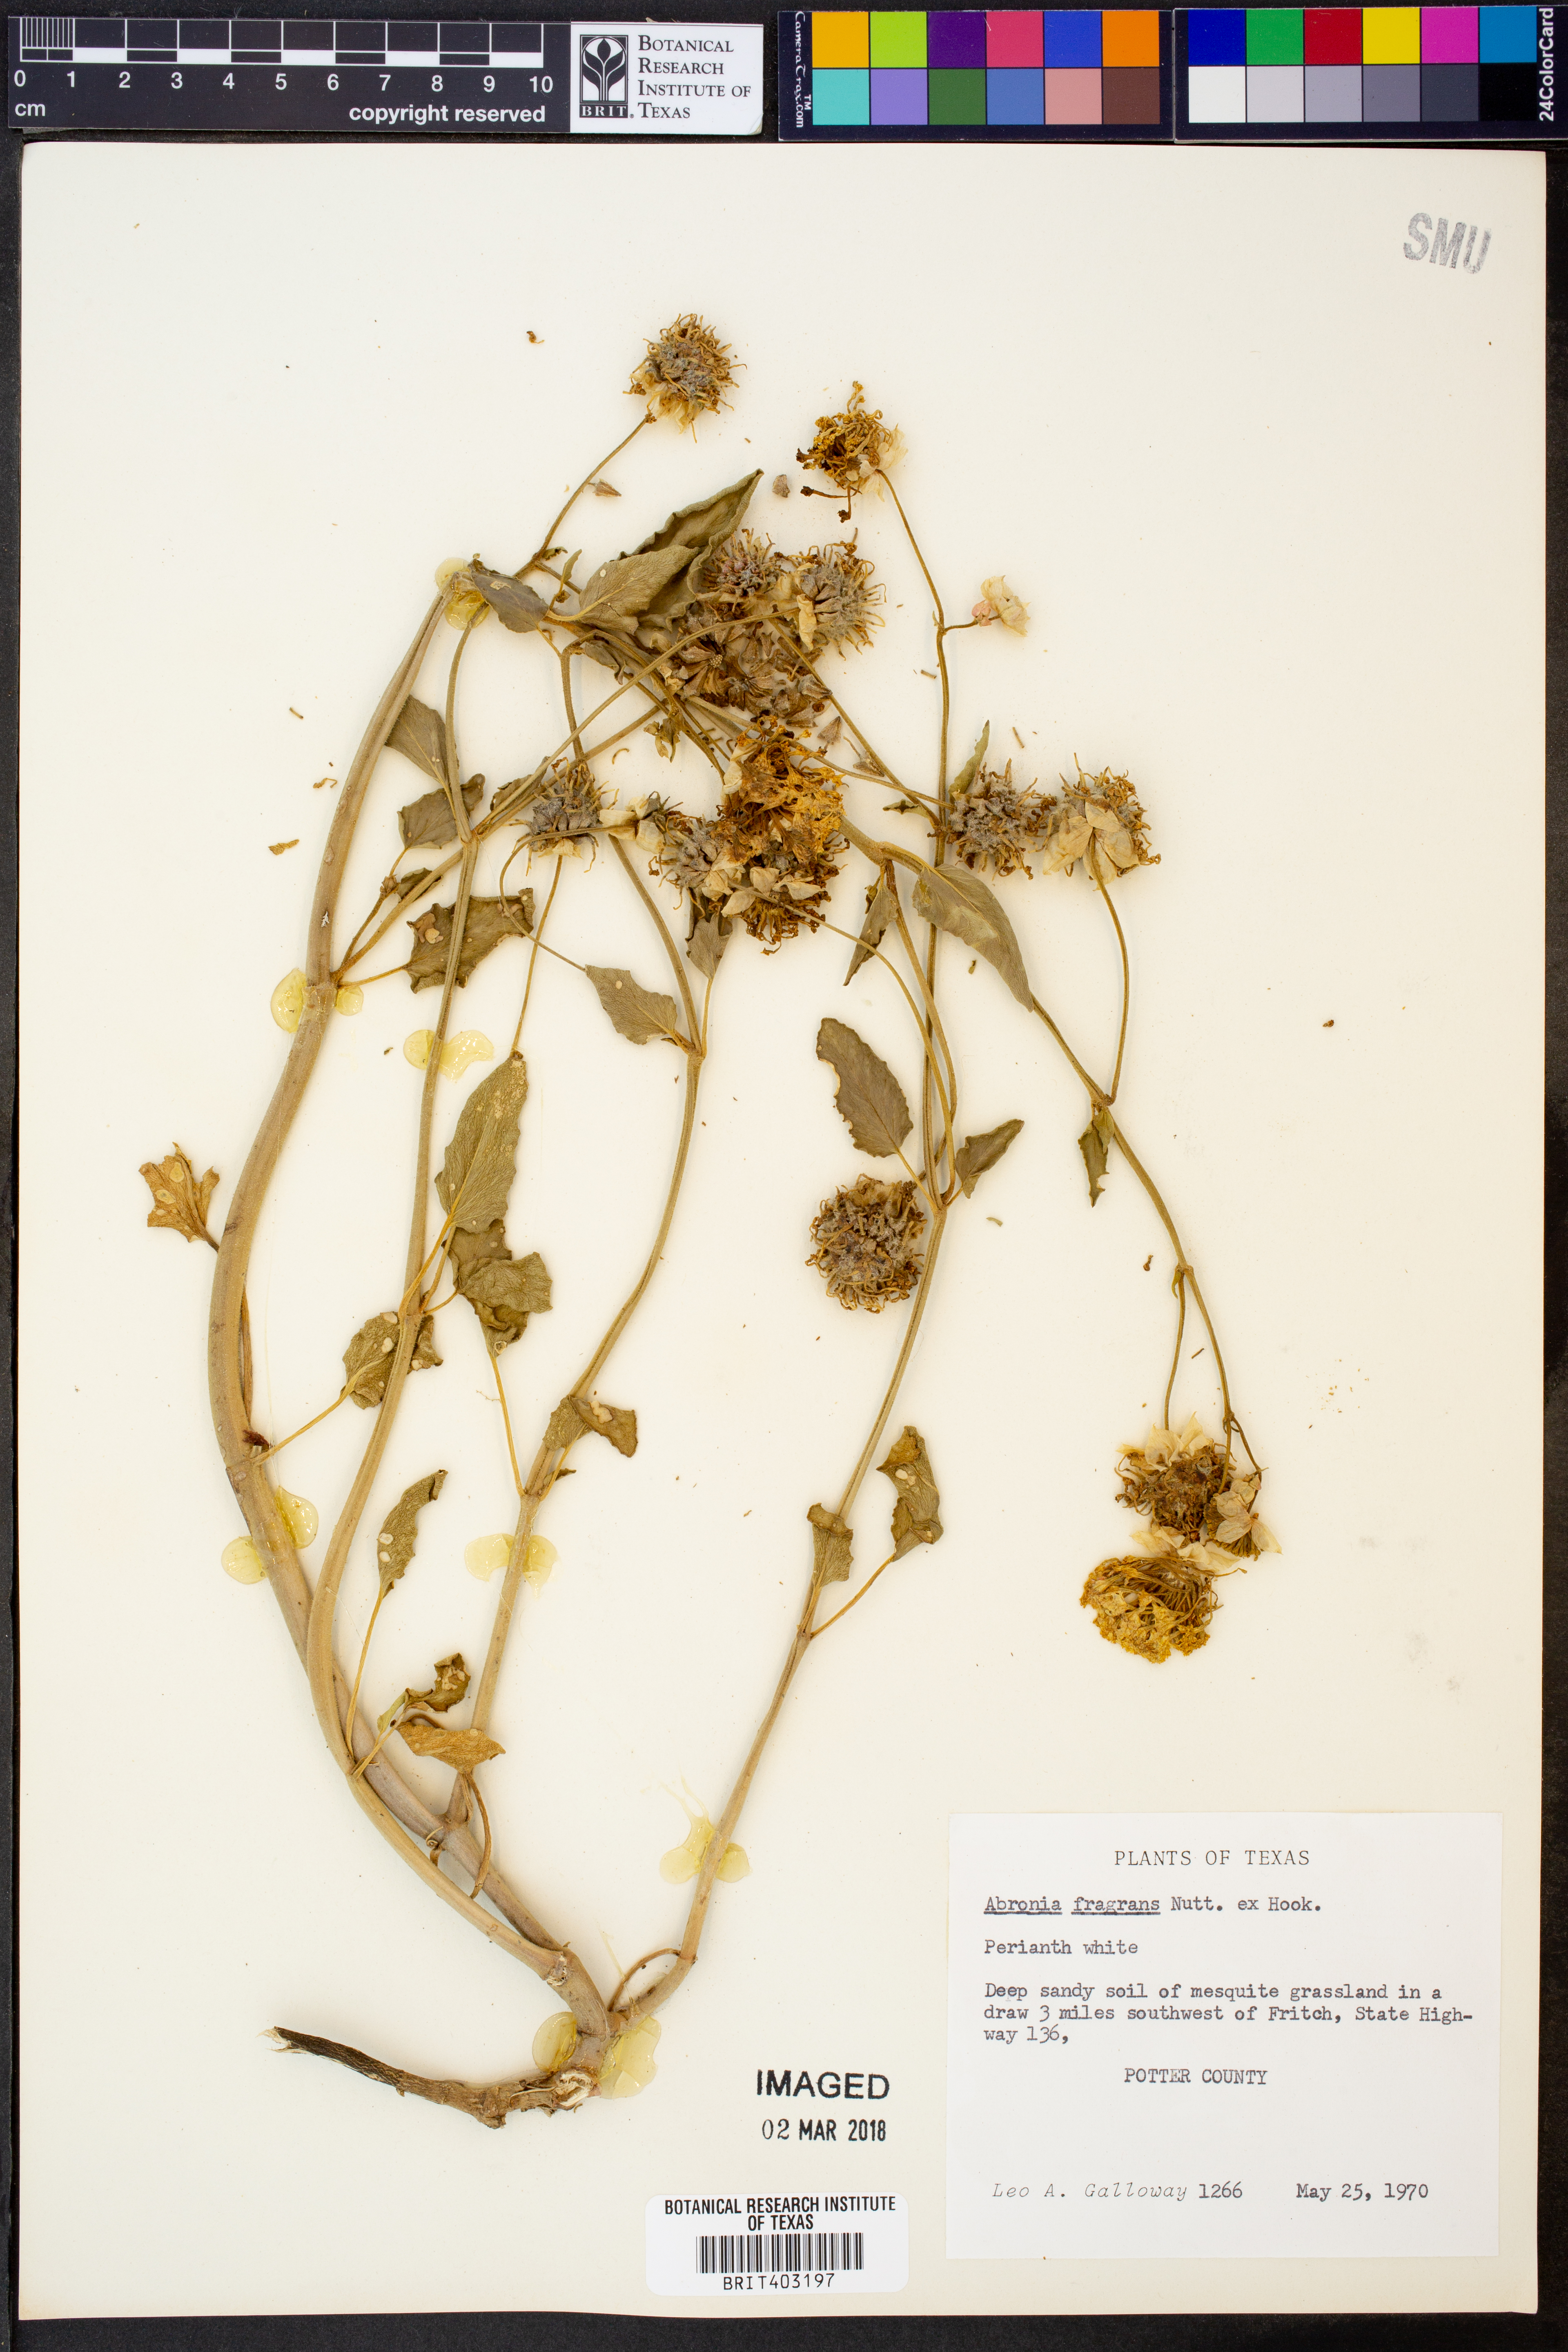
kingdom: Plantae
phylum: Tracheophyta
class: Magnoliopsida
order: Caryophyllales
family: Nyctaginaceae
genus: Abronia
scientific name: Abronia fragrans
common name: Fragrant sand-verbena
